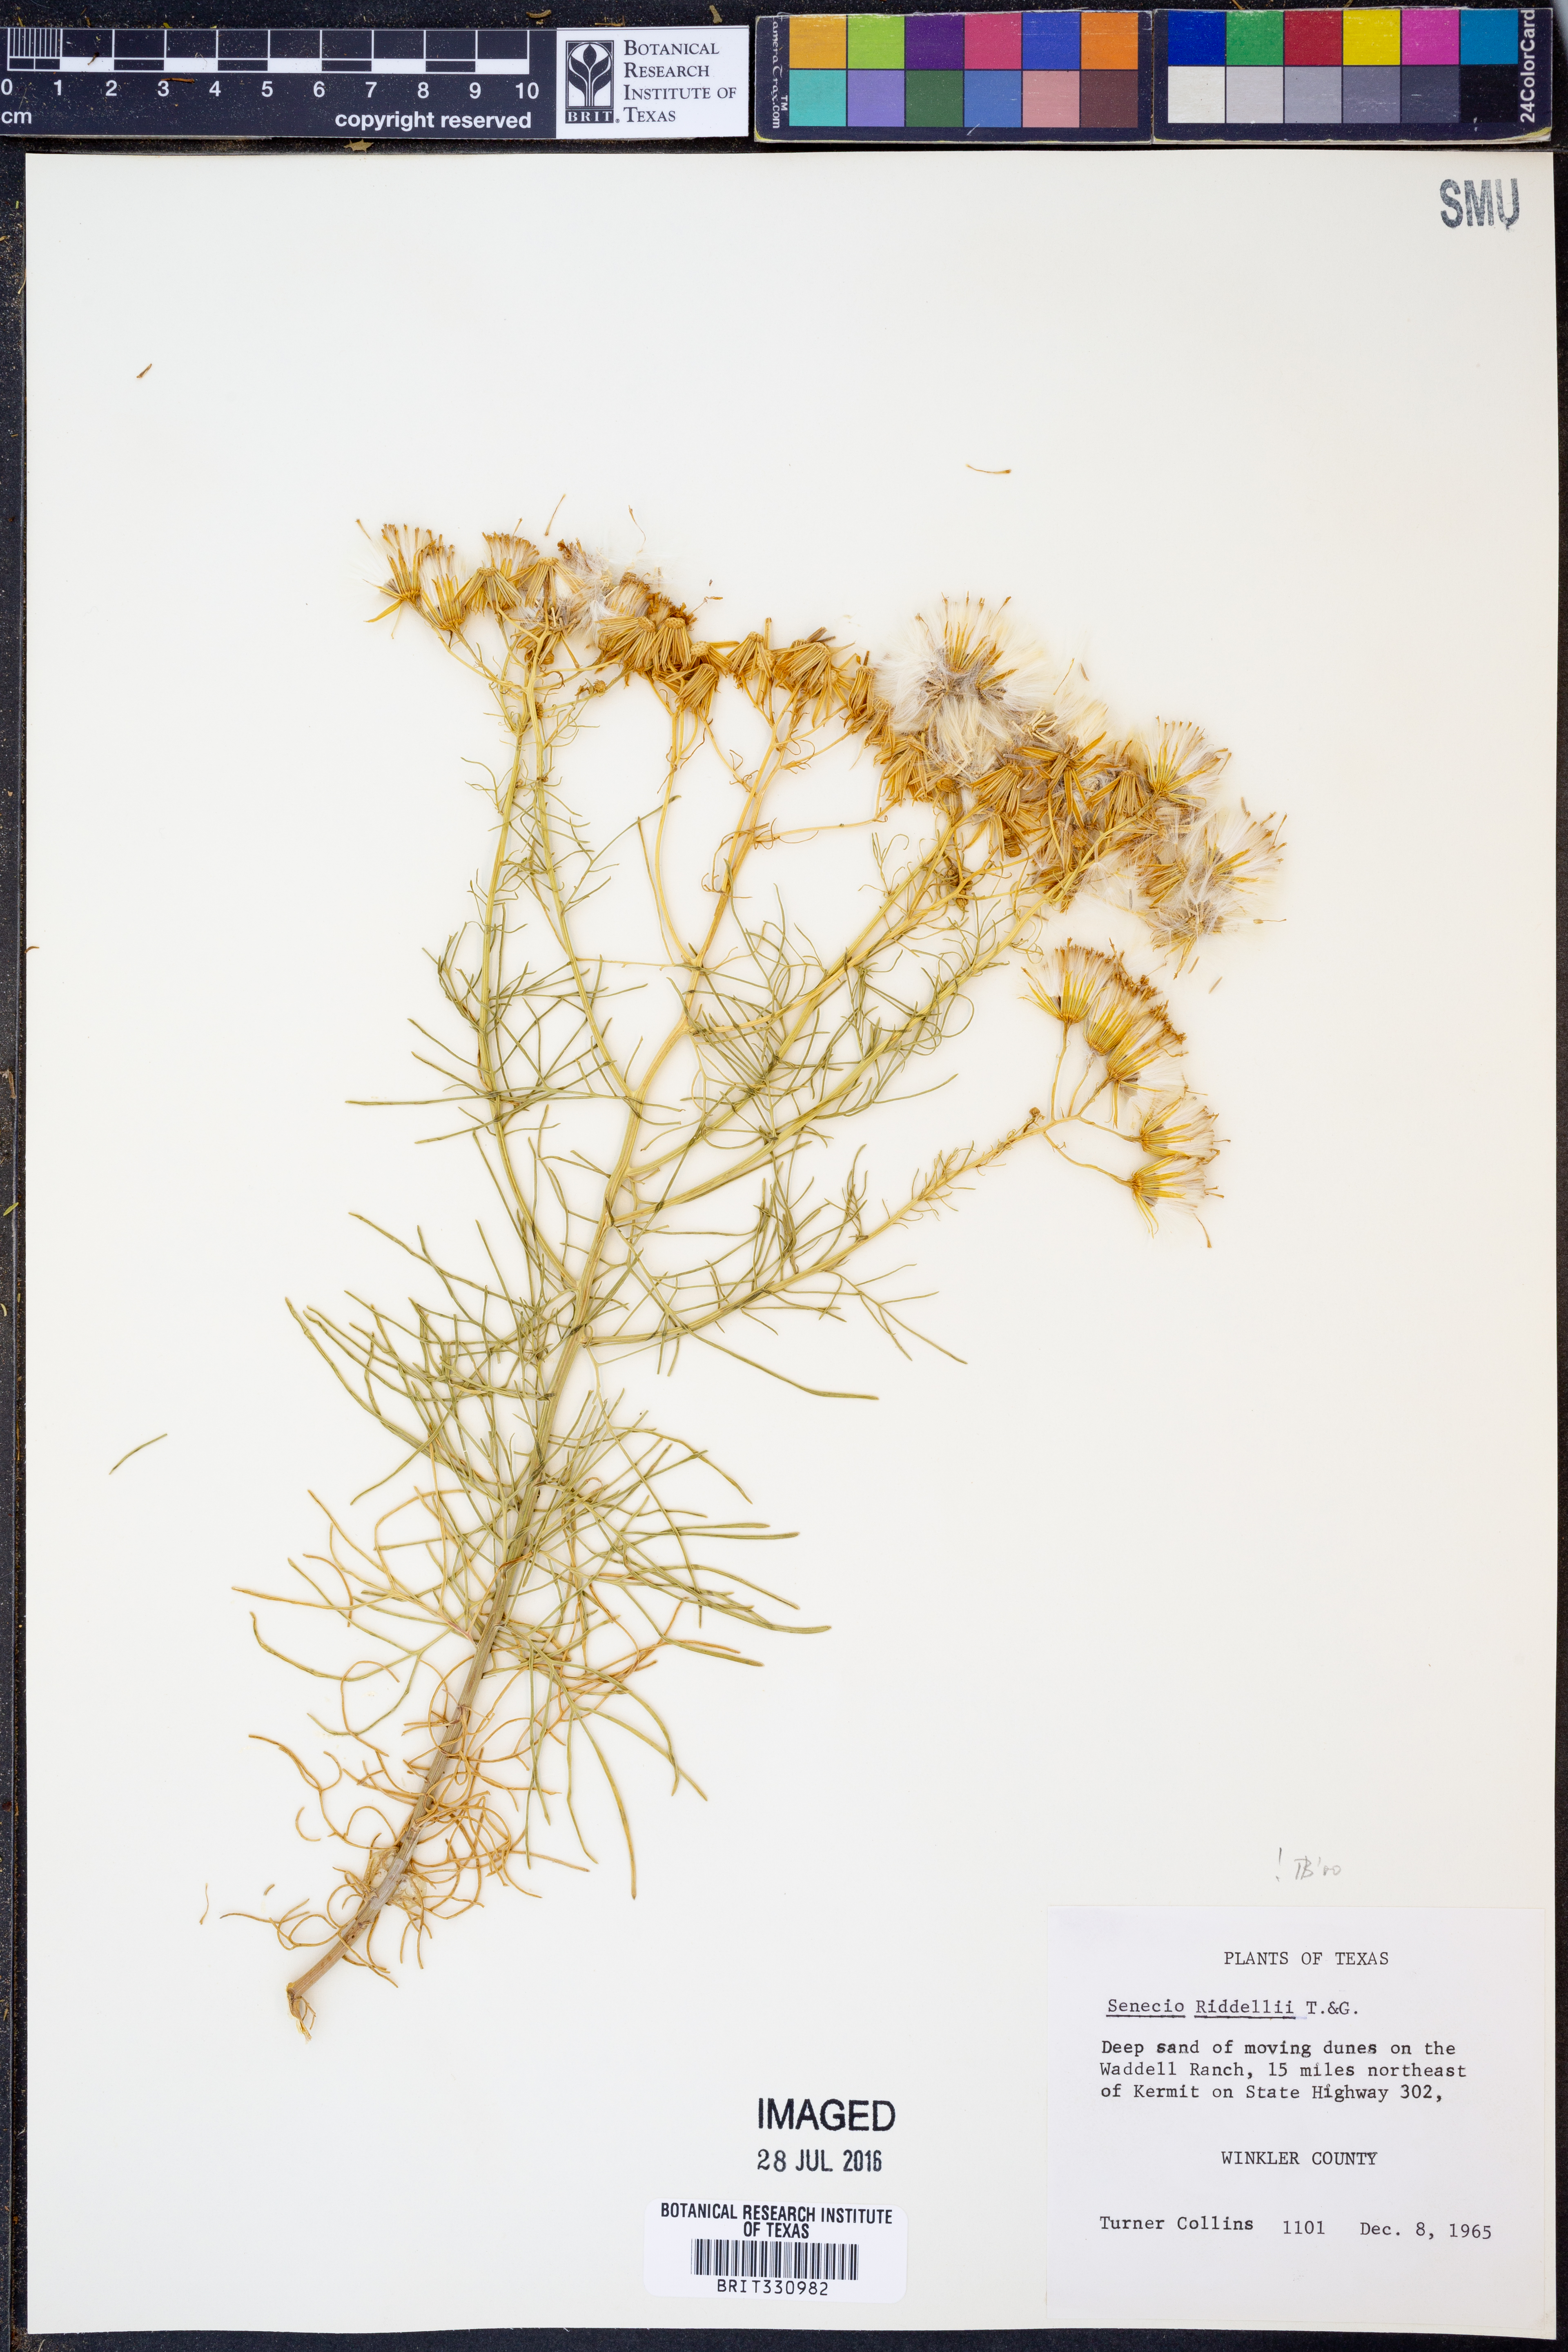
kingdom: Plantae
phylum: Tracheophyta
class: Magnoliopsida
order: Asterales
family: Asteraceae
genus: Senecio
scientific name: Senecio riddellii
